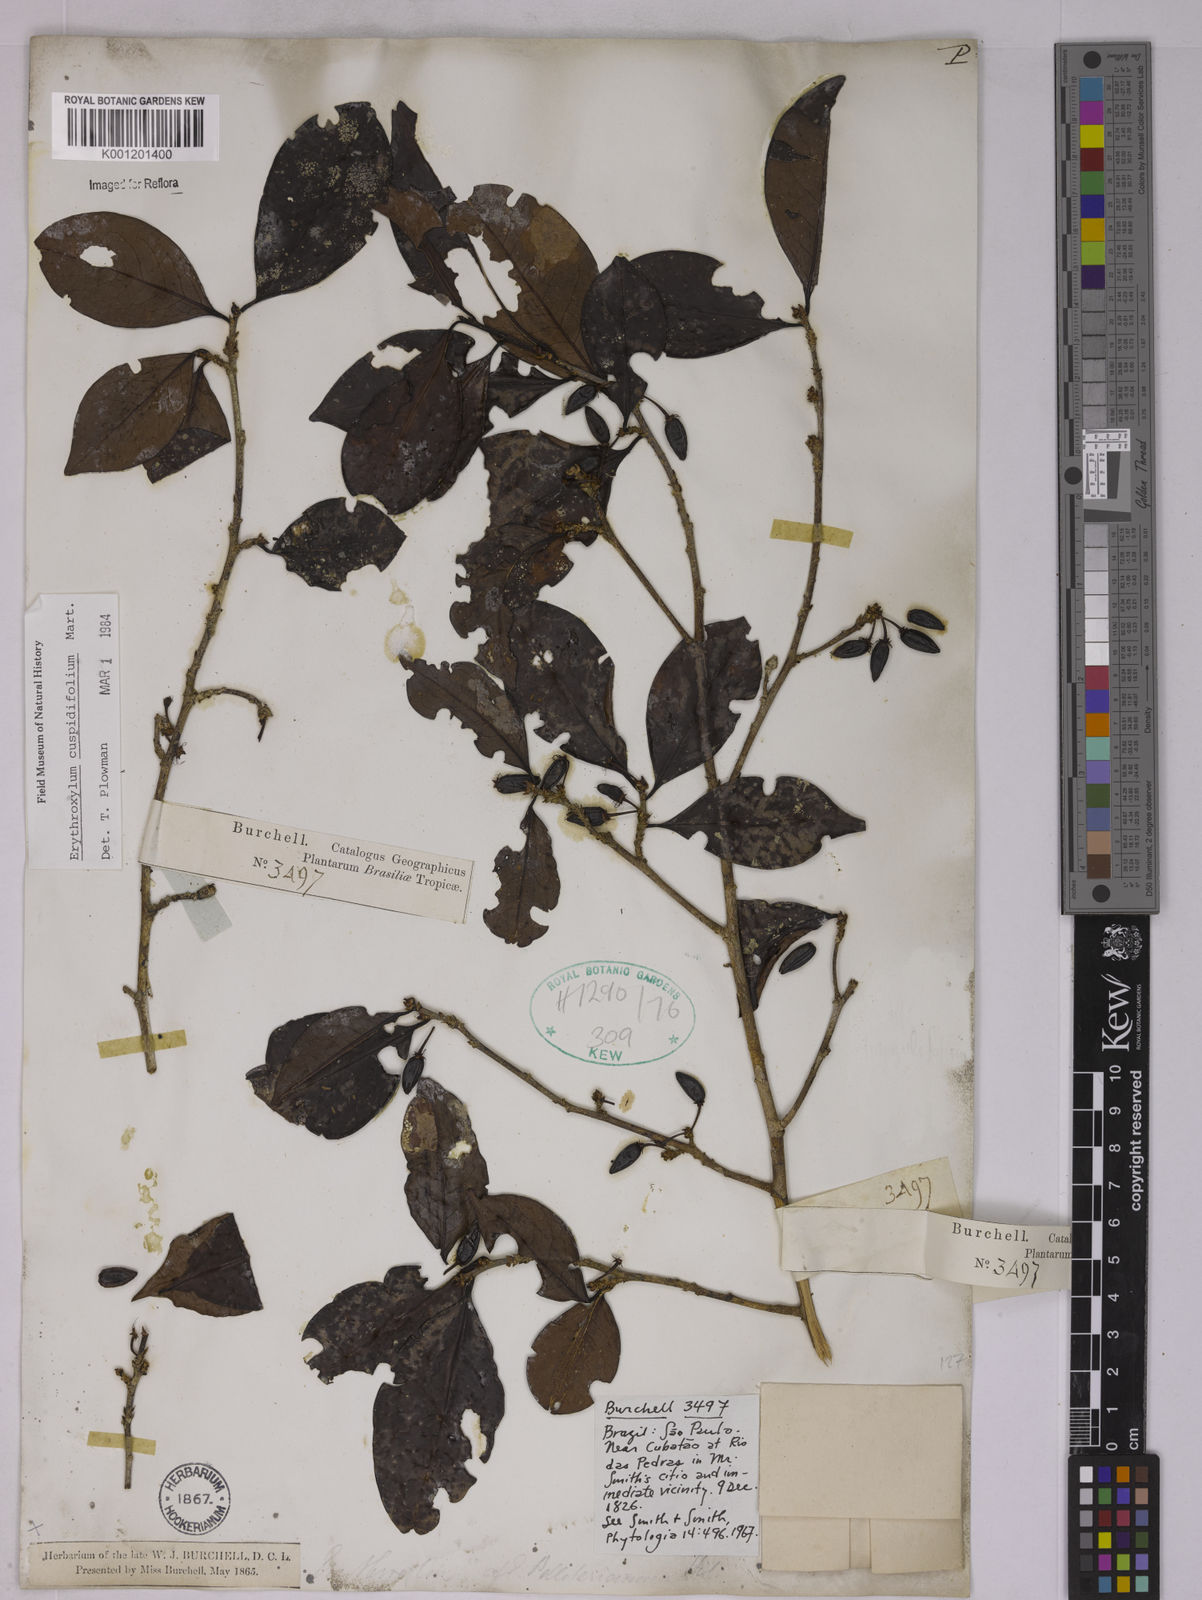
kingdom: Plantae
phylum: Tracheophyta
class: Magnoliopsida
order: Malpighiales
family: Erythroxylaceae
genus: Erythroxylum
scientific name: Erythroxylum cuspidifolium
